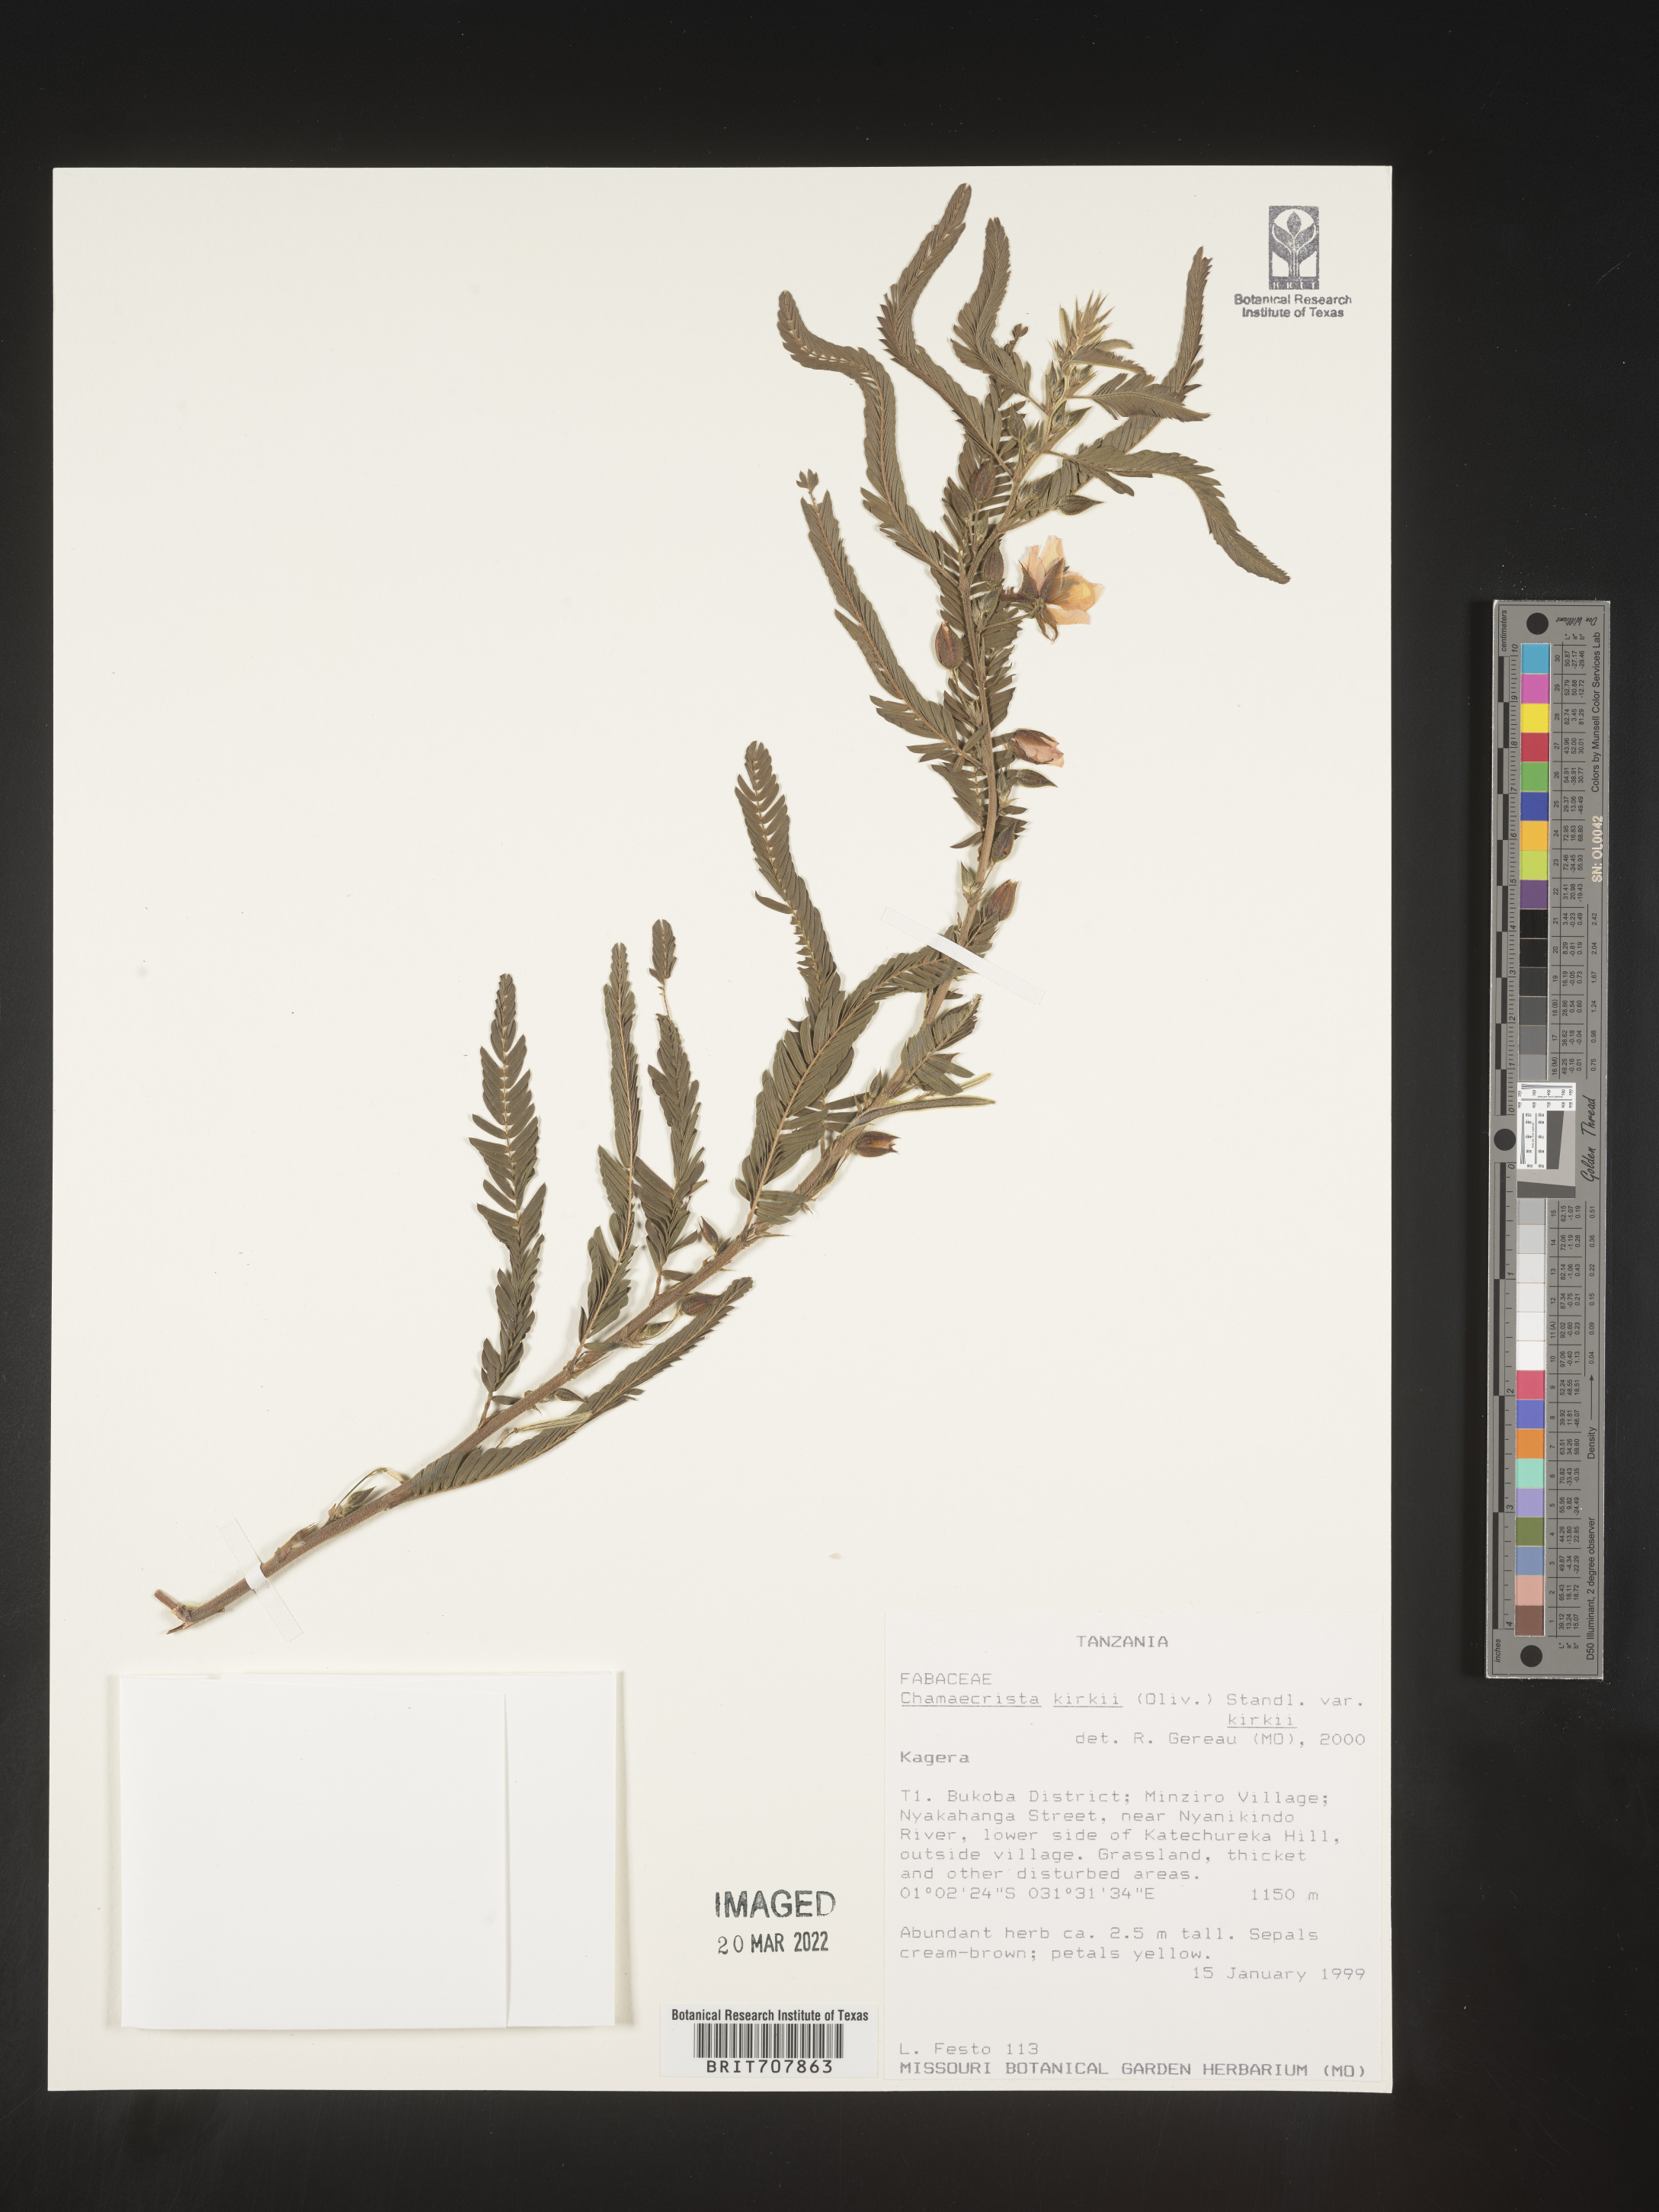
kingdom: Plantae
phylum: Tracheophyta
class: Magnoliopsida
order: Fabales
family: Fabaceae
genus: Chamaecrista
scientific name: Chamaecrista
